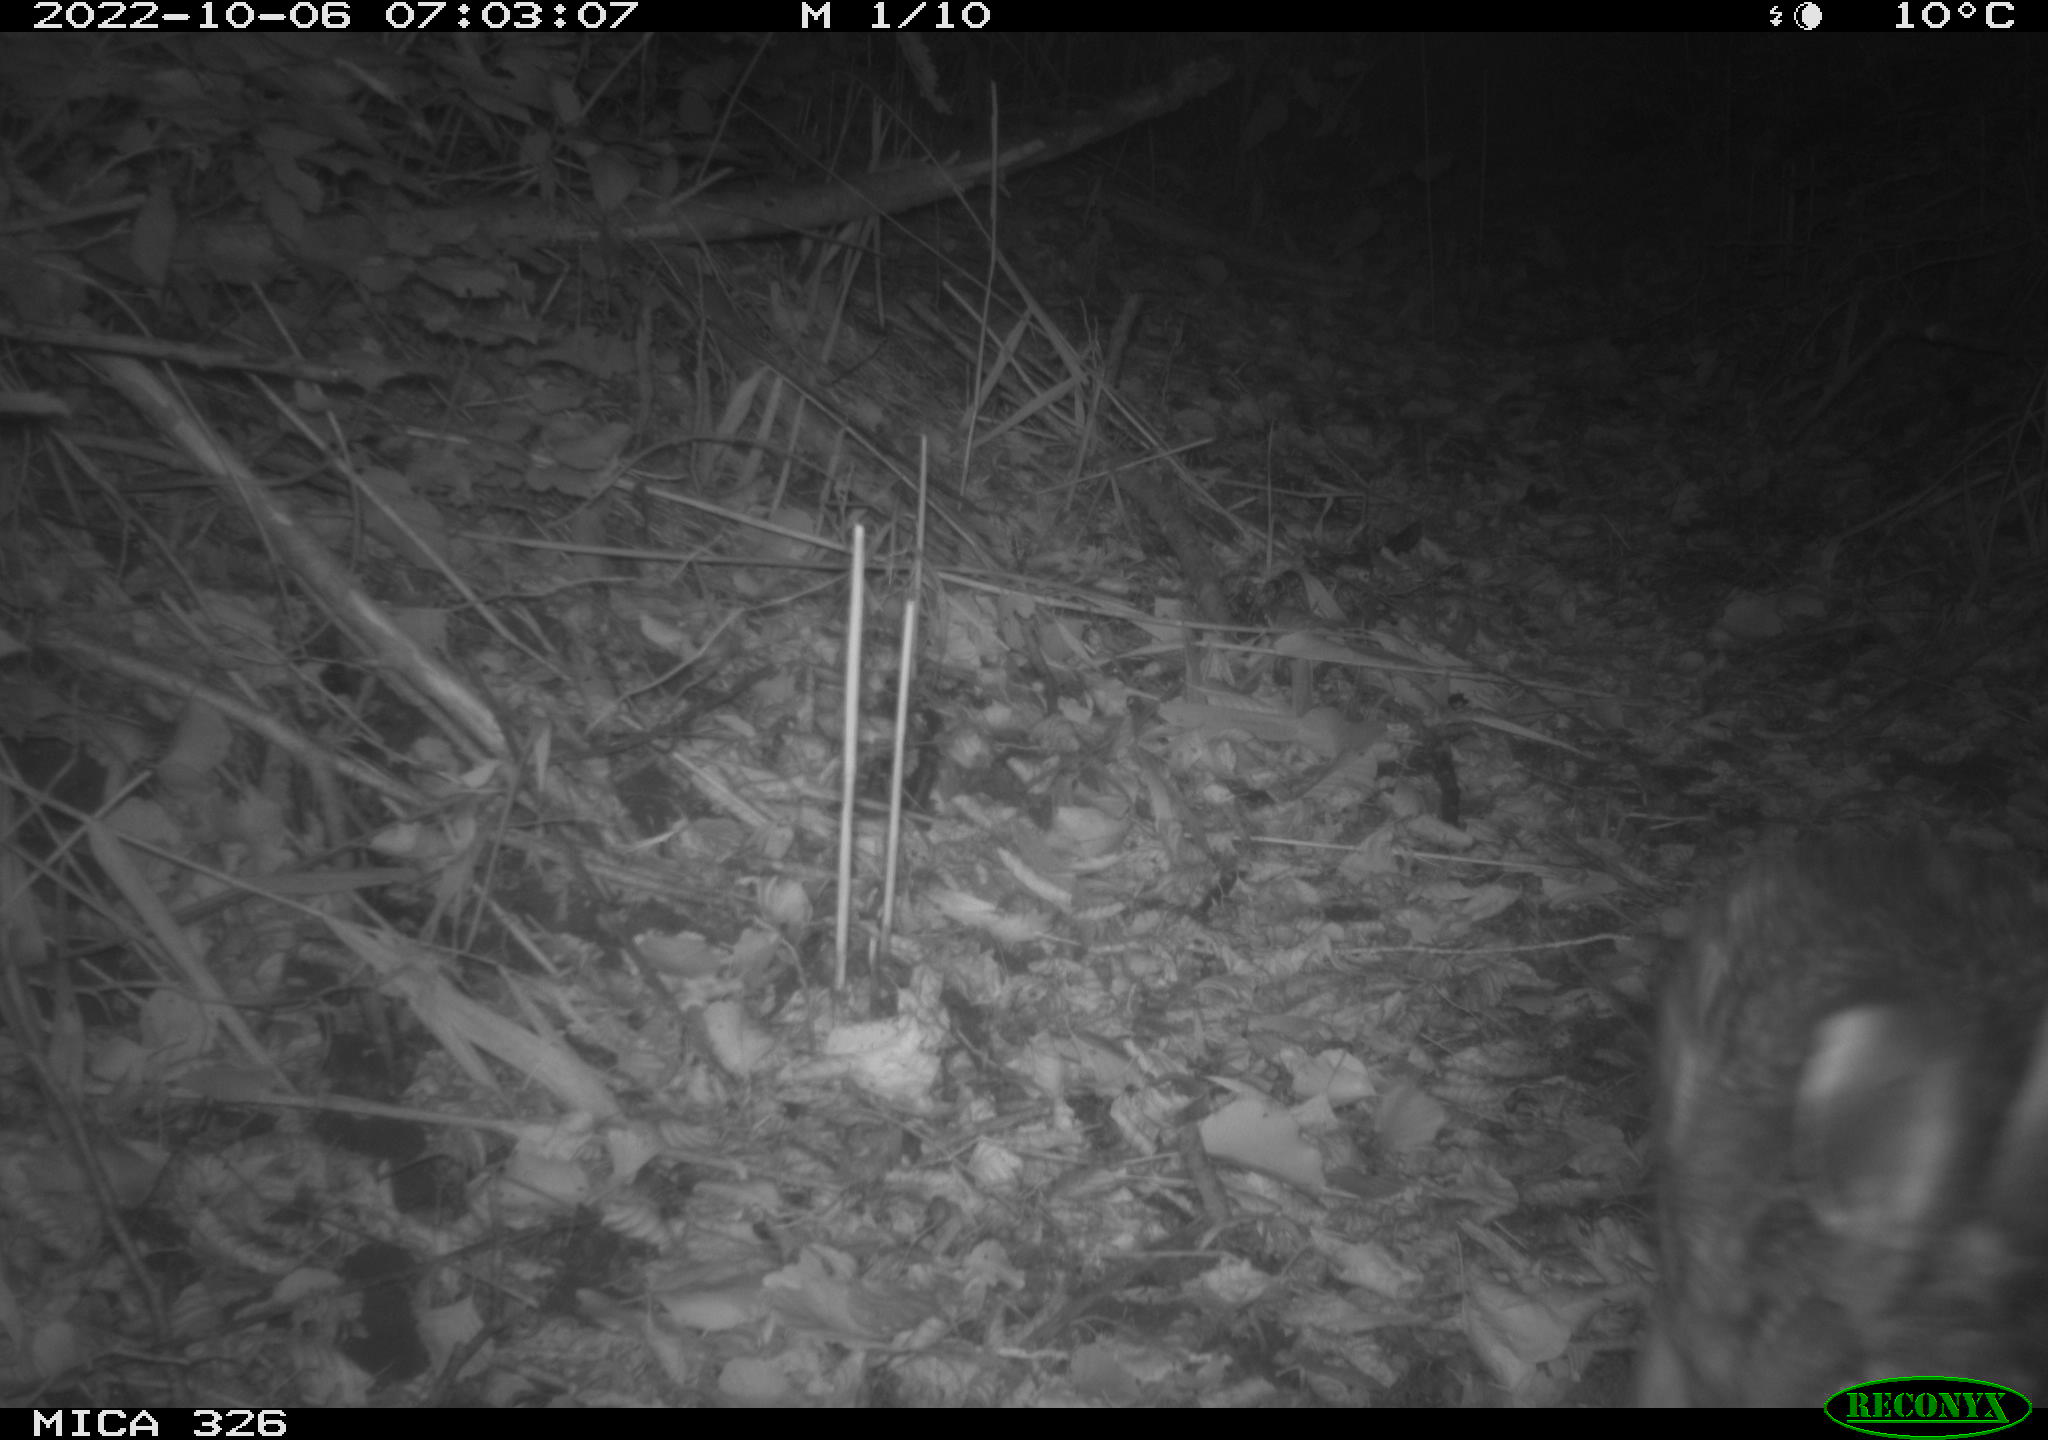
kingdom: Animalia
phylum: Chordata
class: Mammalia
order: Lagomorpha
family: Leporidae
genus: Lepus
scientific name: Lepus europaeus
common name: European hare
